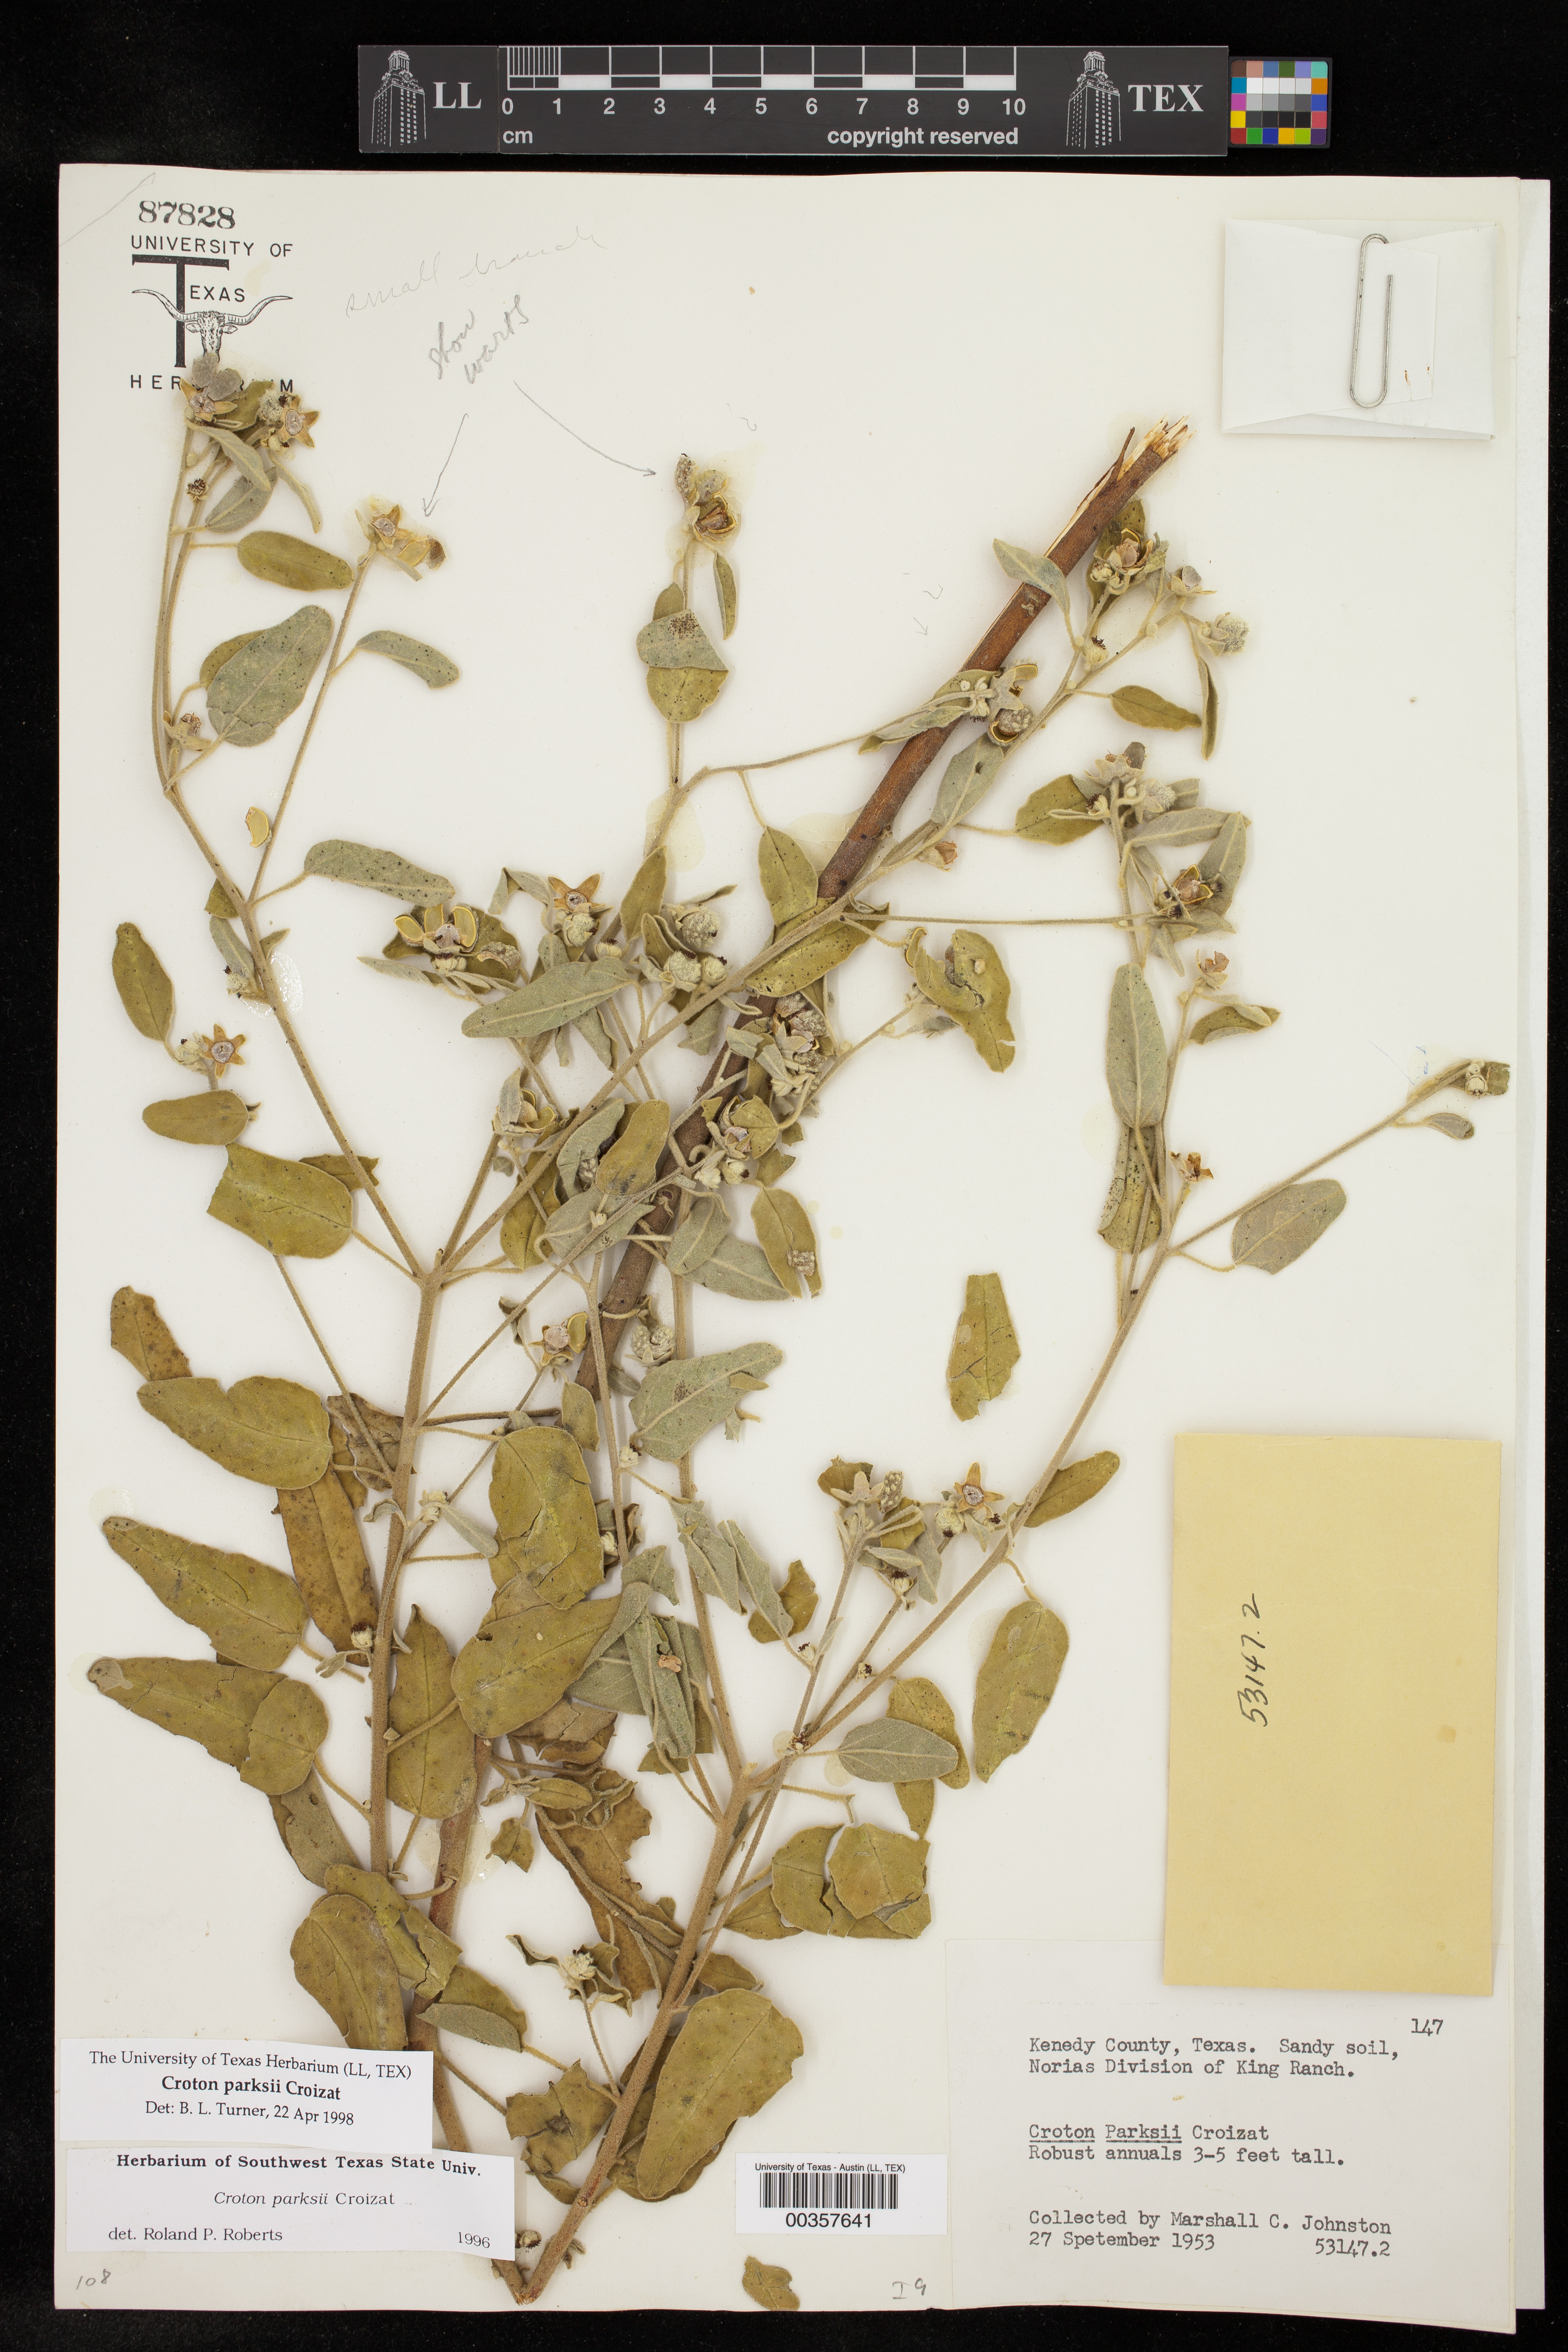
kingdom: Plantae
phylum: Tracheophyta
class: Magnoliopsida
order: Malpighiales
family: Euphorbiaceae
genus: Croton
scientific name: Croton parksii
